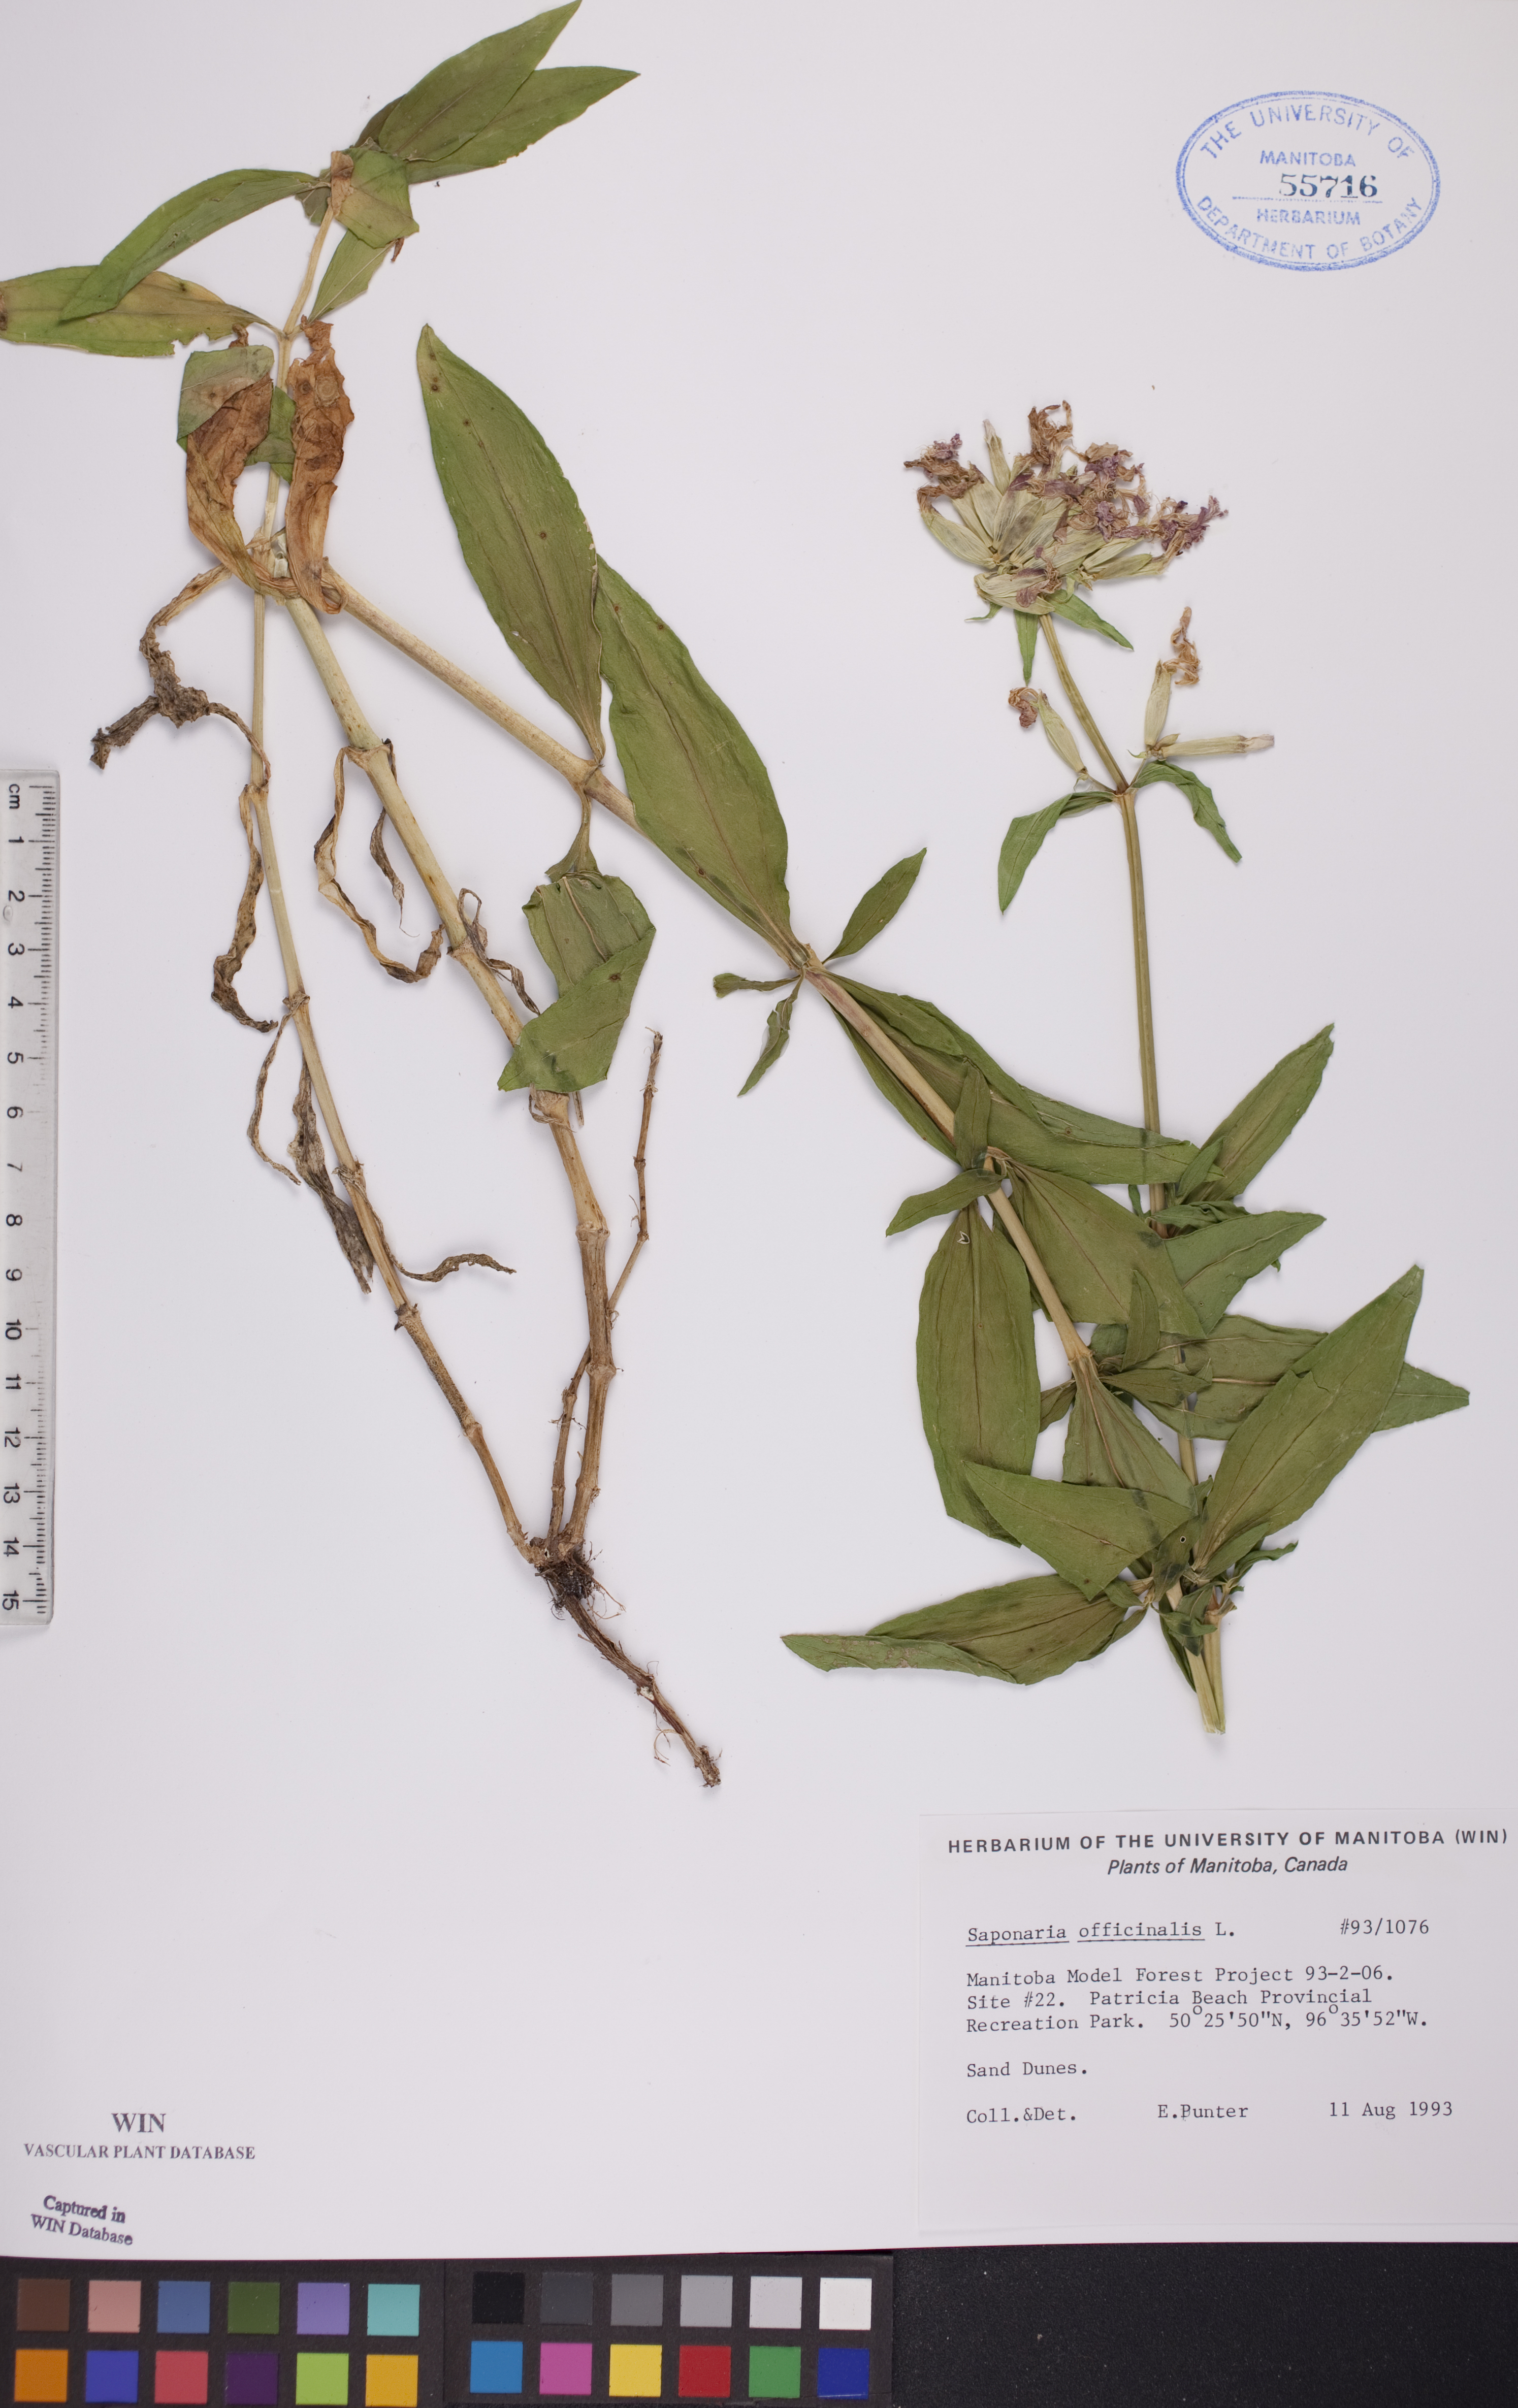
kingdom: Plantae
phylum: Tracheophyta
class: Magnoliopsida
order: Caryophyllales
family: Caryophyllaceae
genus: Saponaria
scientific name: Saponaria officinalis
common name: Soapwort
